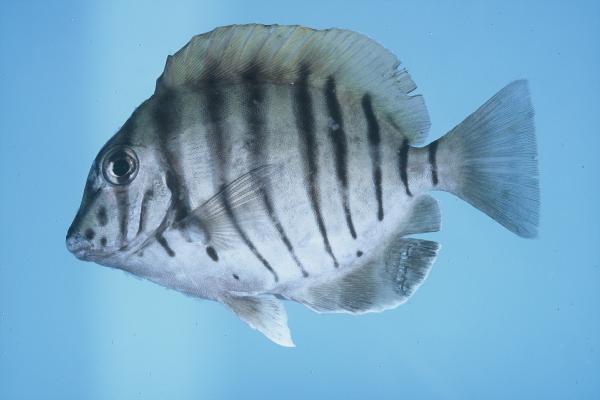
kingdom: Animalia
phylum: Chordata
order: Perciformes
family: Acanthuridae
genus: Acanthurus
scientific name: Acanthurus polyzona
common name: Black-barred surgeonfish
